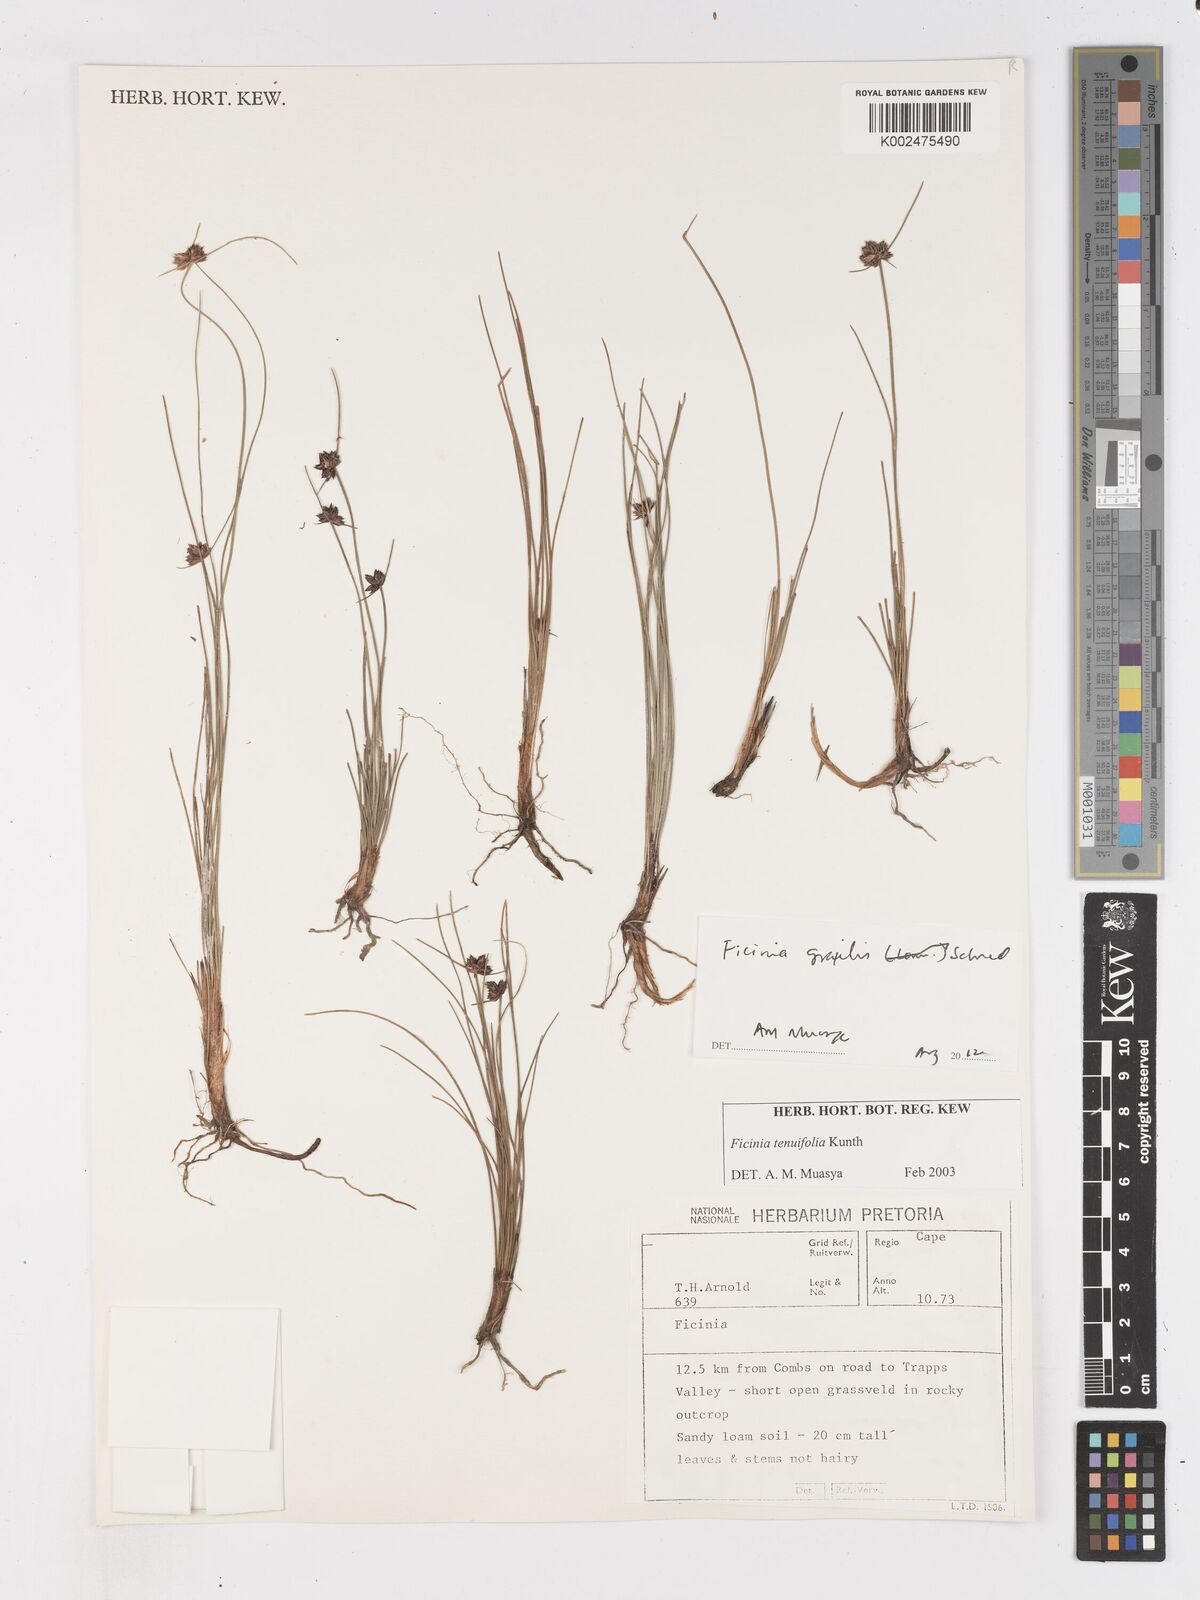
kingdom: Plantae
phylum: Tracheophyta
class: Liliopsida
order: Poales
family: Cyperaceae
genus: Ficinia
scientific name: Ficinia gracilis
